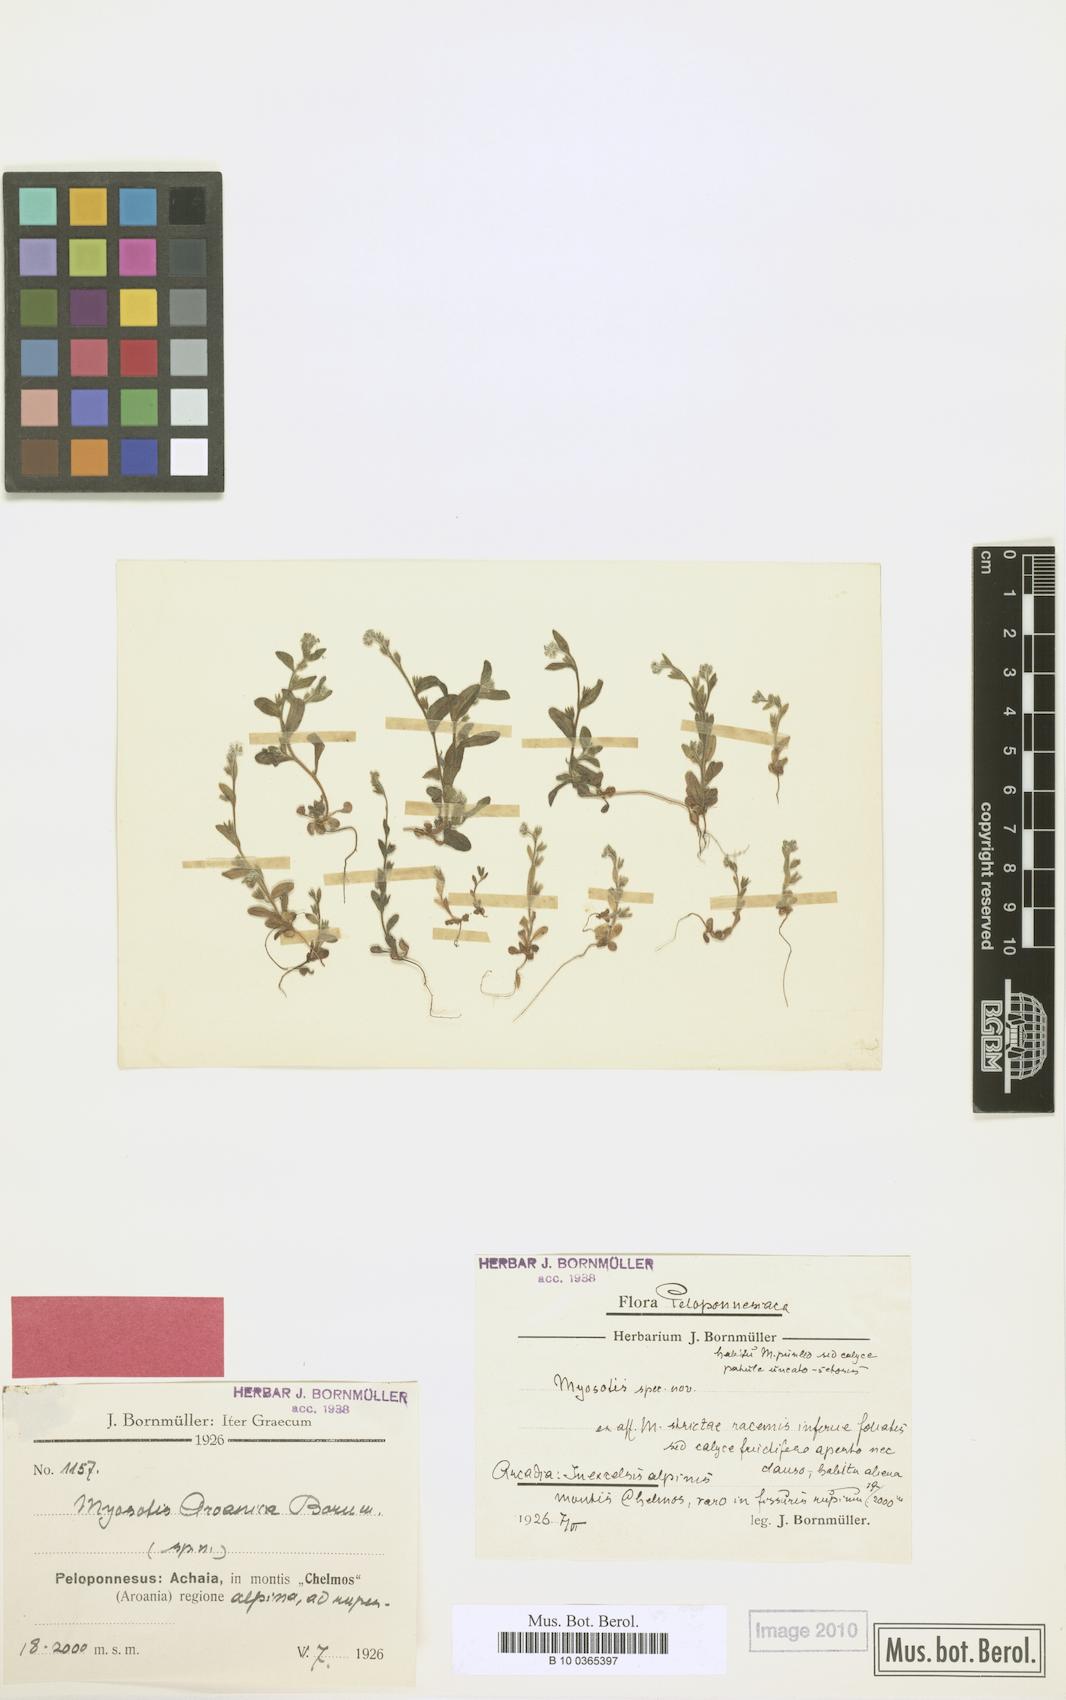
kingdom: Plantae
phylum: Tracheophyta
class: Magnoliopsida
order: Boraginales
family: Boraginaceae
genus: Myosotis
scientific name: Myosotis minutiflora
